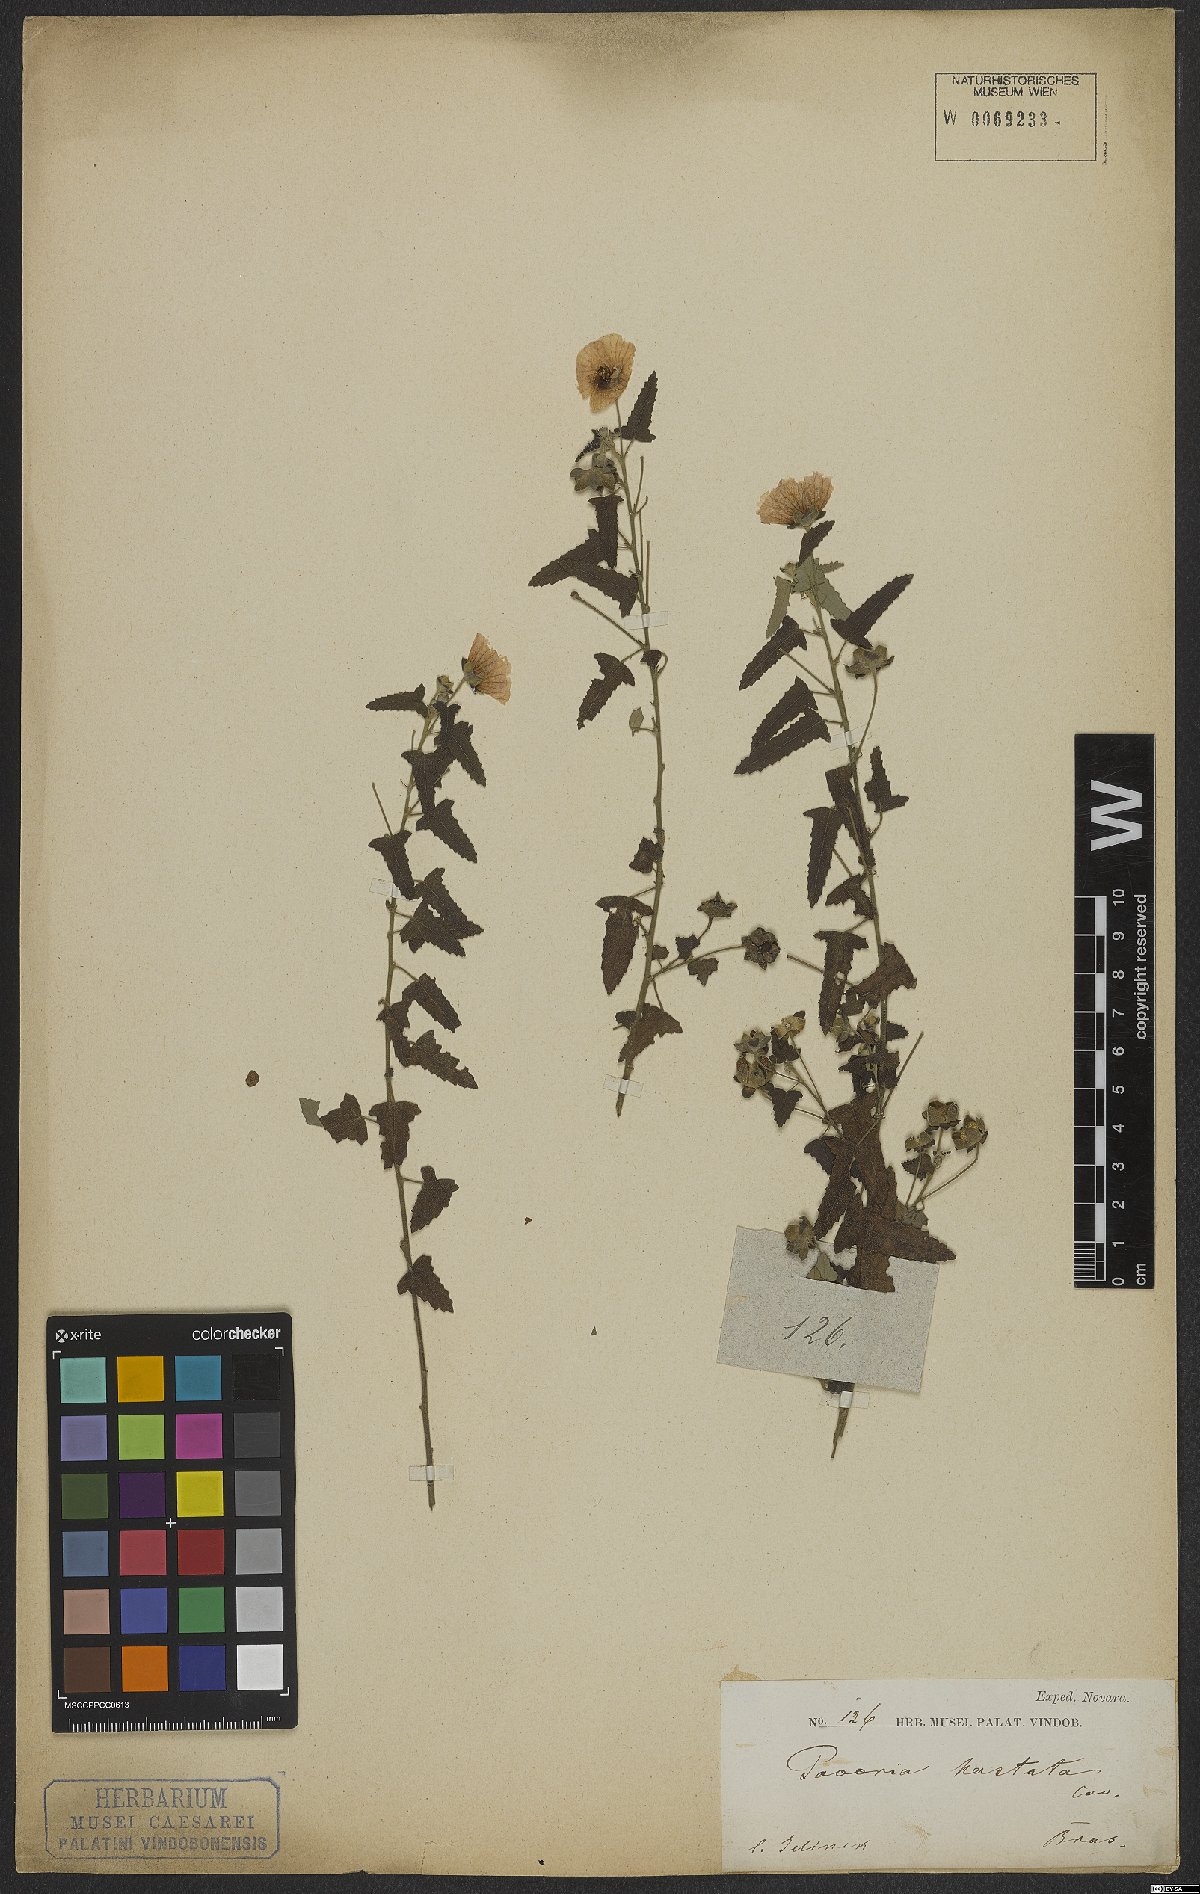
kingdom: Plantae
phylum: Tracheophyta
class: Magnoliopsida
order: Malvales
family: Malvaceae
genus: Pavonia
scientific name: Pavonia hastata
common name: Spearleaf swampmallow
